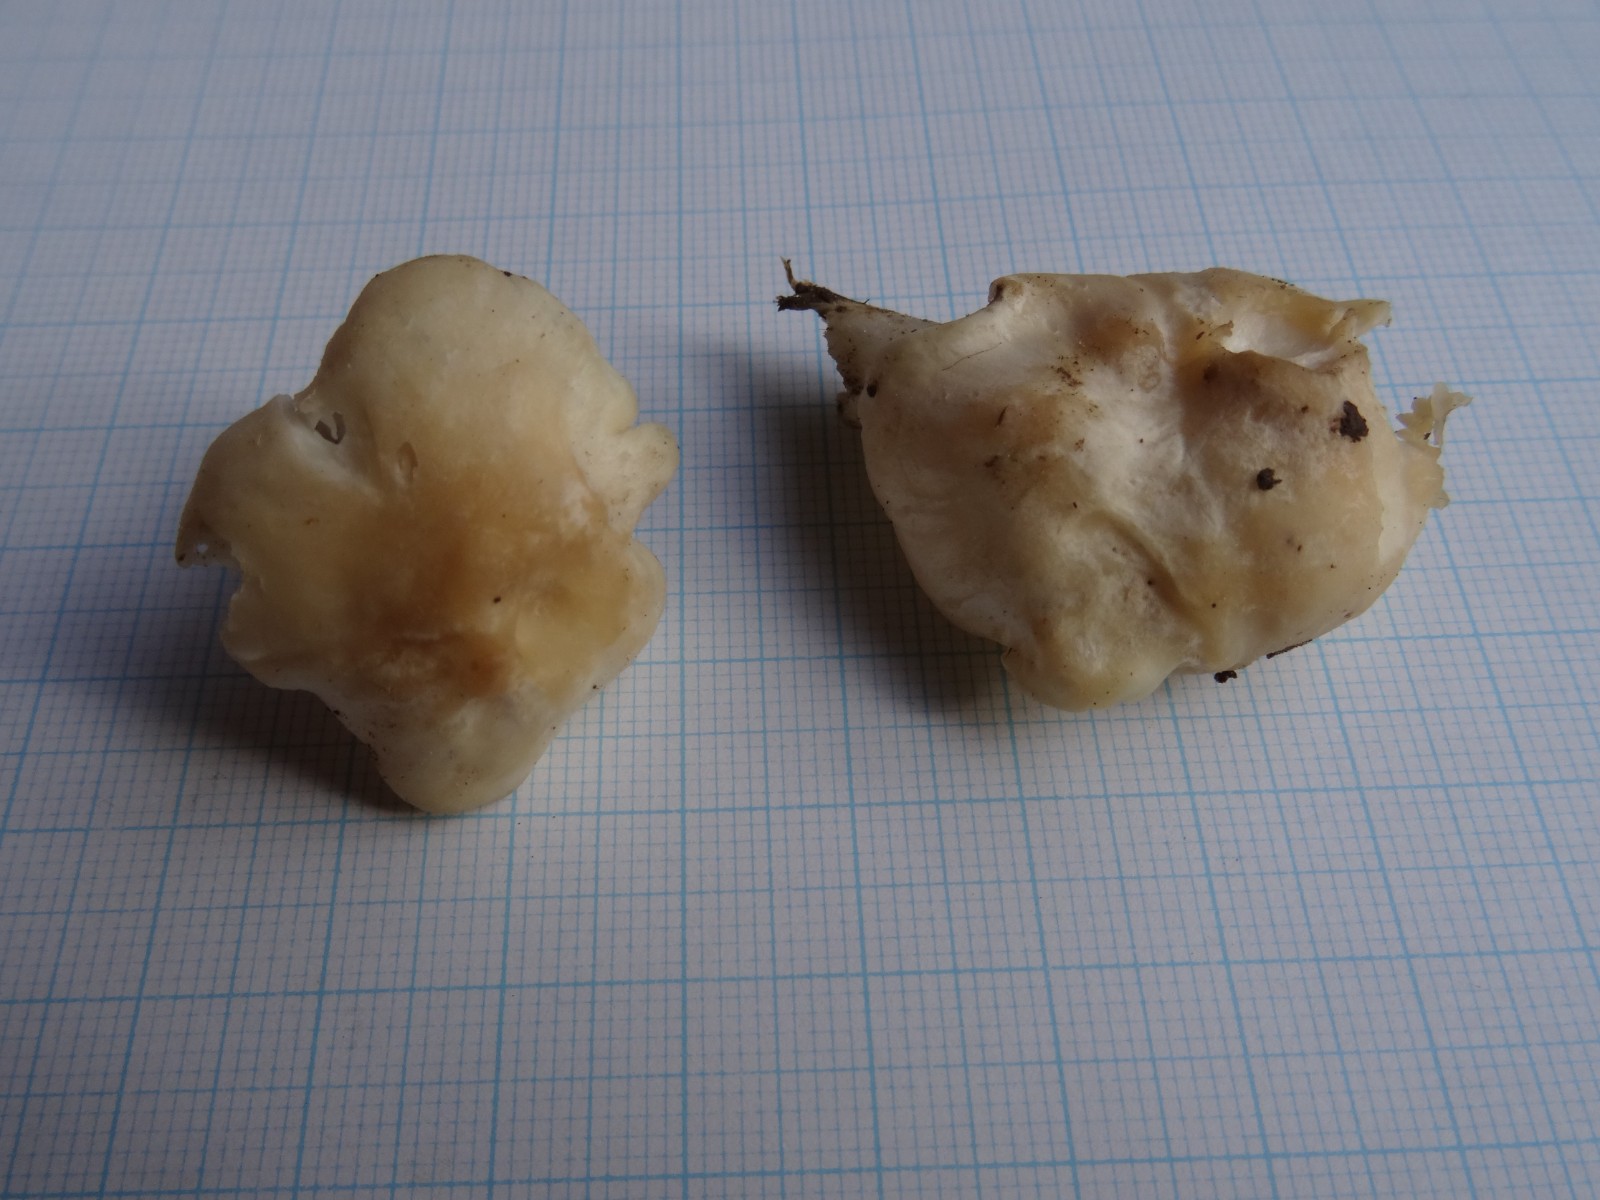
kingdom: Fungi
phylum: Basidiomycota
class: Agaricomycetes
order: Agaricales
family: Hygrophoraceae
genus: Cuphophyllus
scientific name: Cuphophyllus
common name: vokshat
